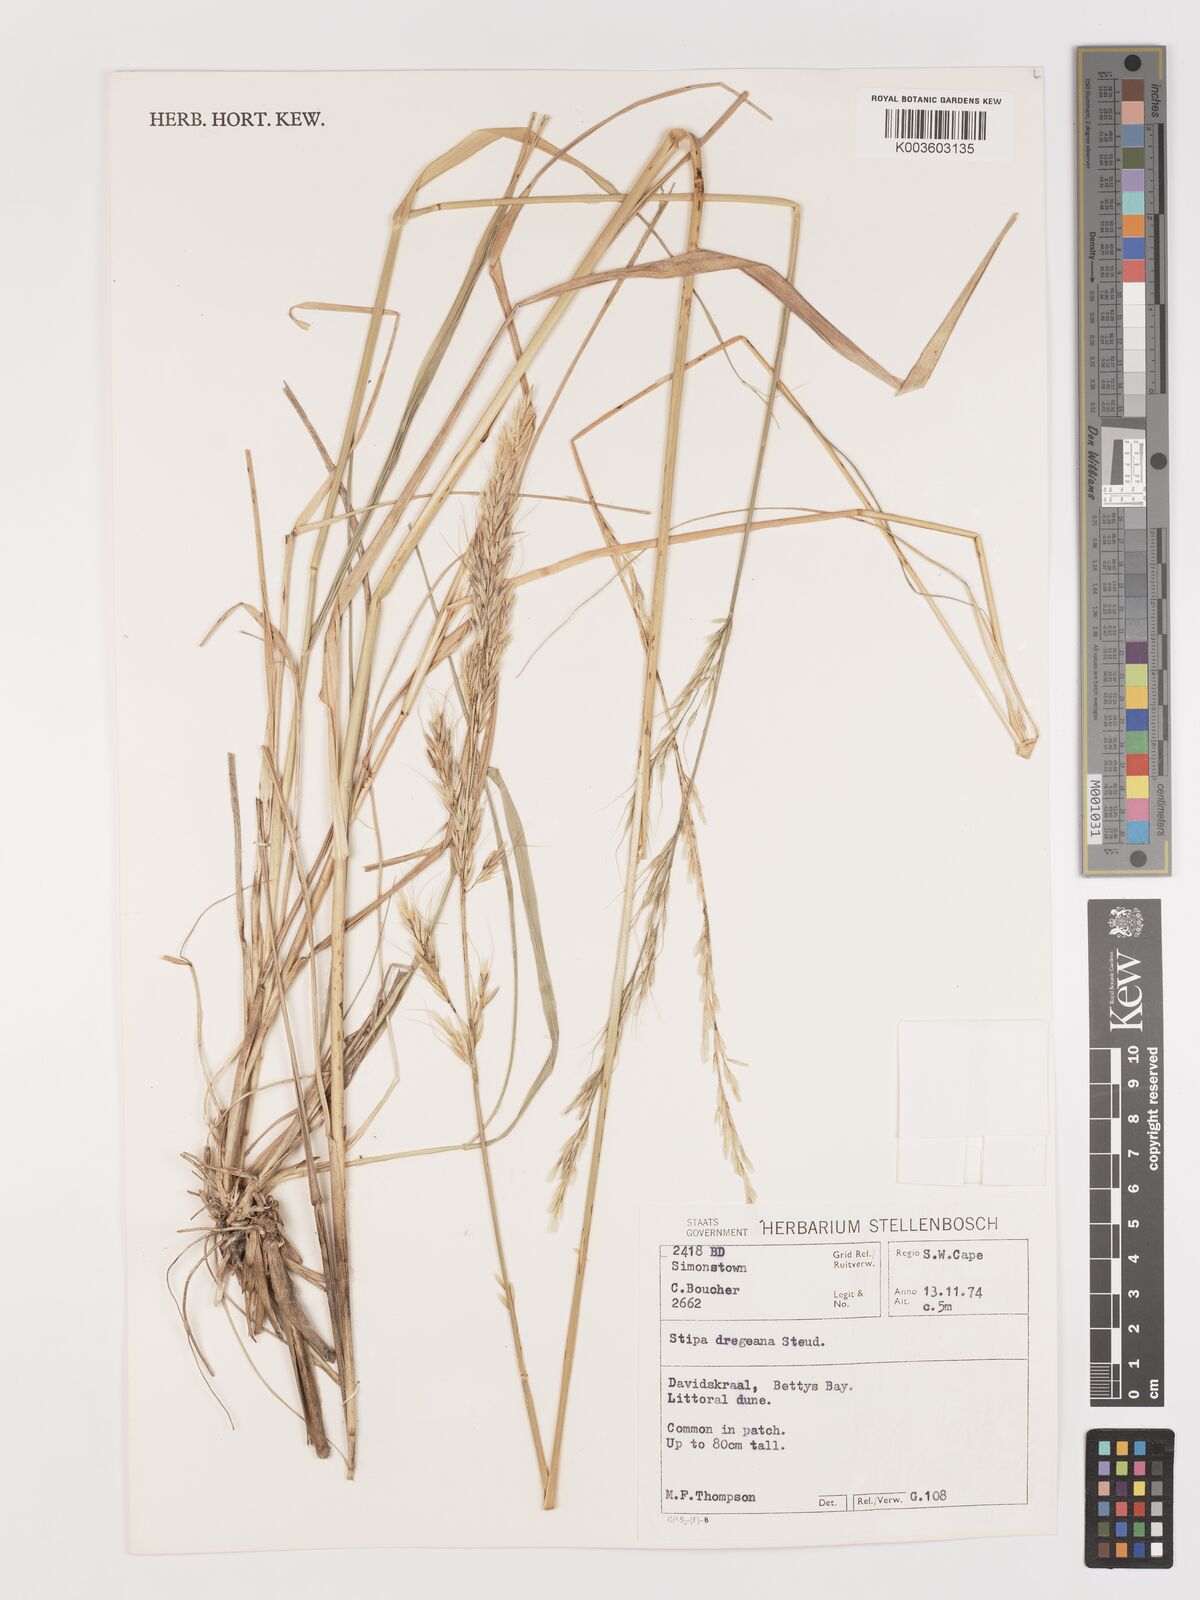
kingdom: Plantae
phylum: Tracheophyta
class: Liliopsida
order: Poales
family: Poaceae
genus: Stipa
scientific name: Stipa dregeana
